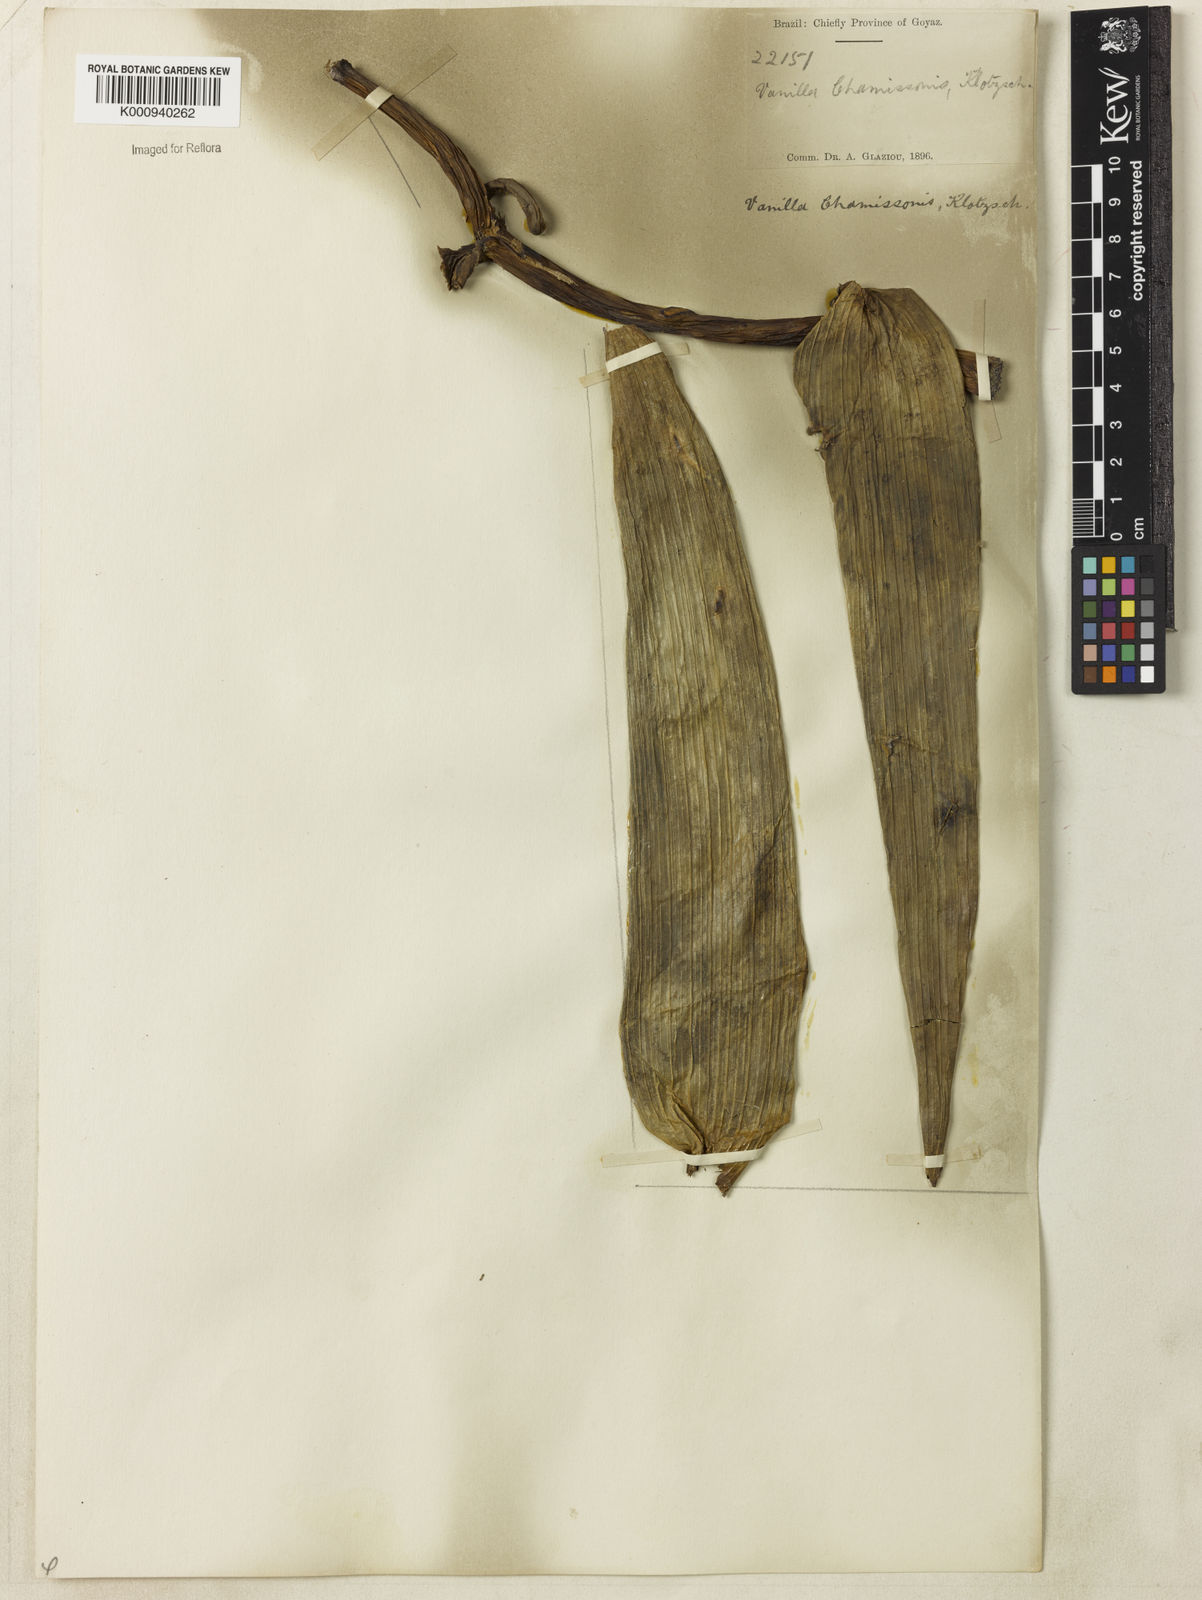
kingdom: Plantae
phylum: Tracheophyta
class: Liliopsida
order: Asparagales
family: Orchidaceae
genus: Vanilla
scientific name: Vanilla chamissonis
